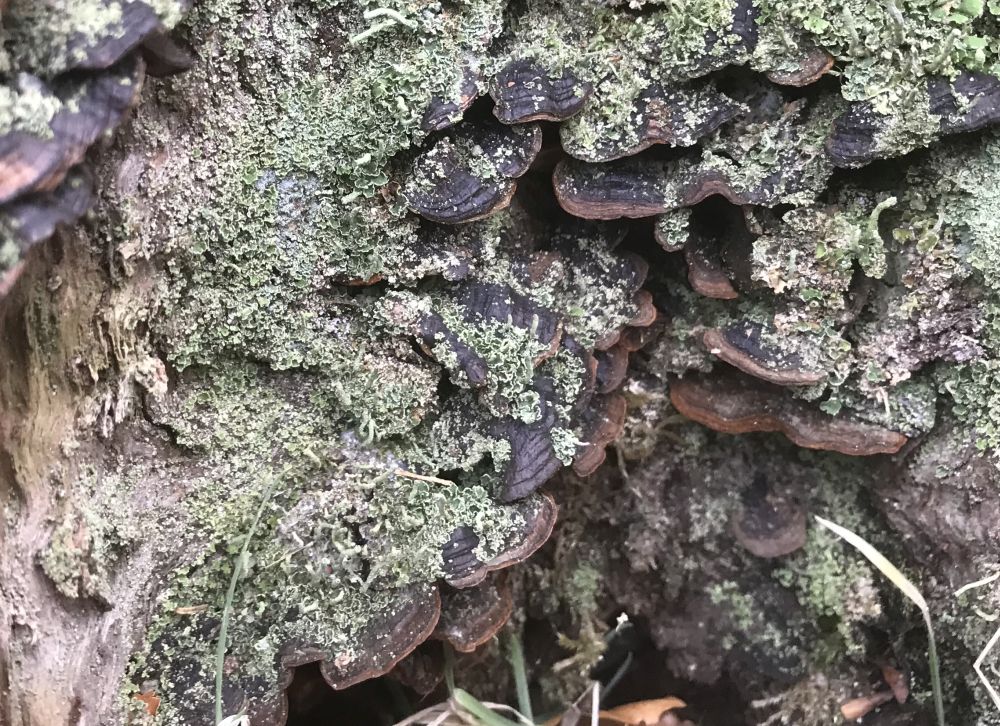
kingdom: Fungi
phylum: Basidiomycota
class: Agaricomycetes
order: Hymenochaetales
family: Hymenochaetaceae
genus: Hymenochaete
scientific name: Hymenochaete rubiginosa
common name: stiv ruslædersvamp
